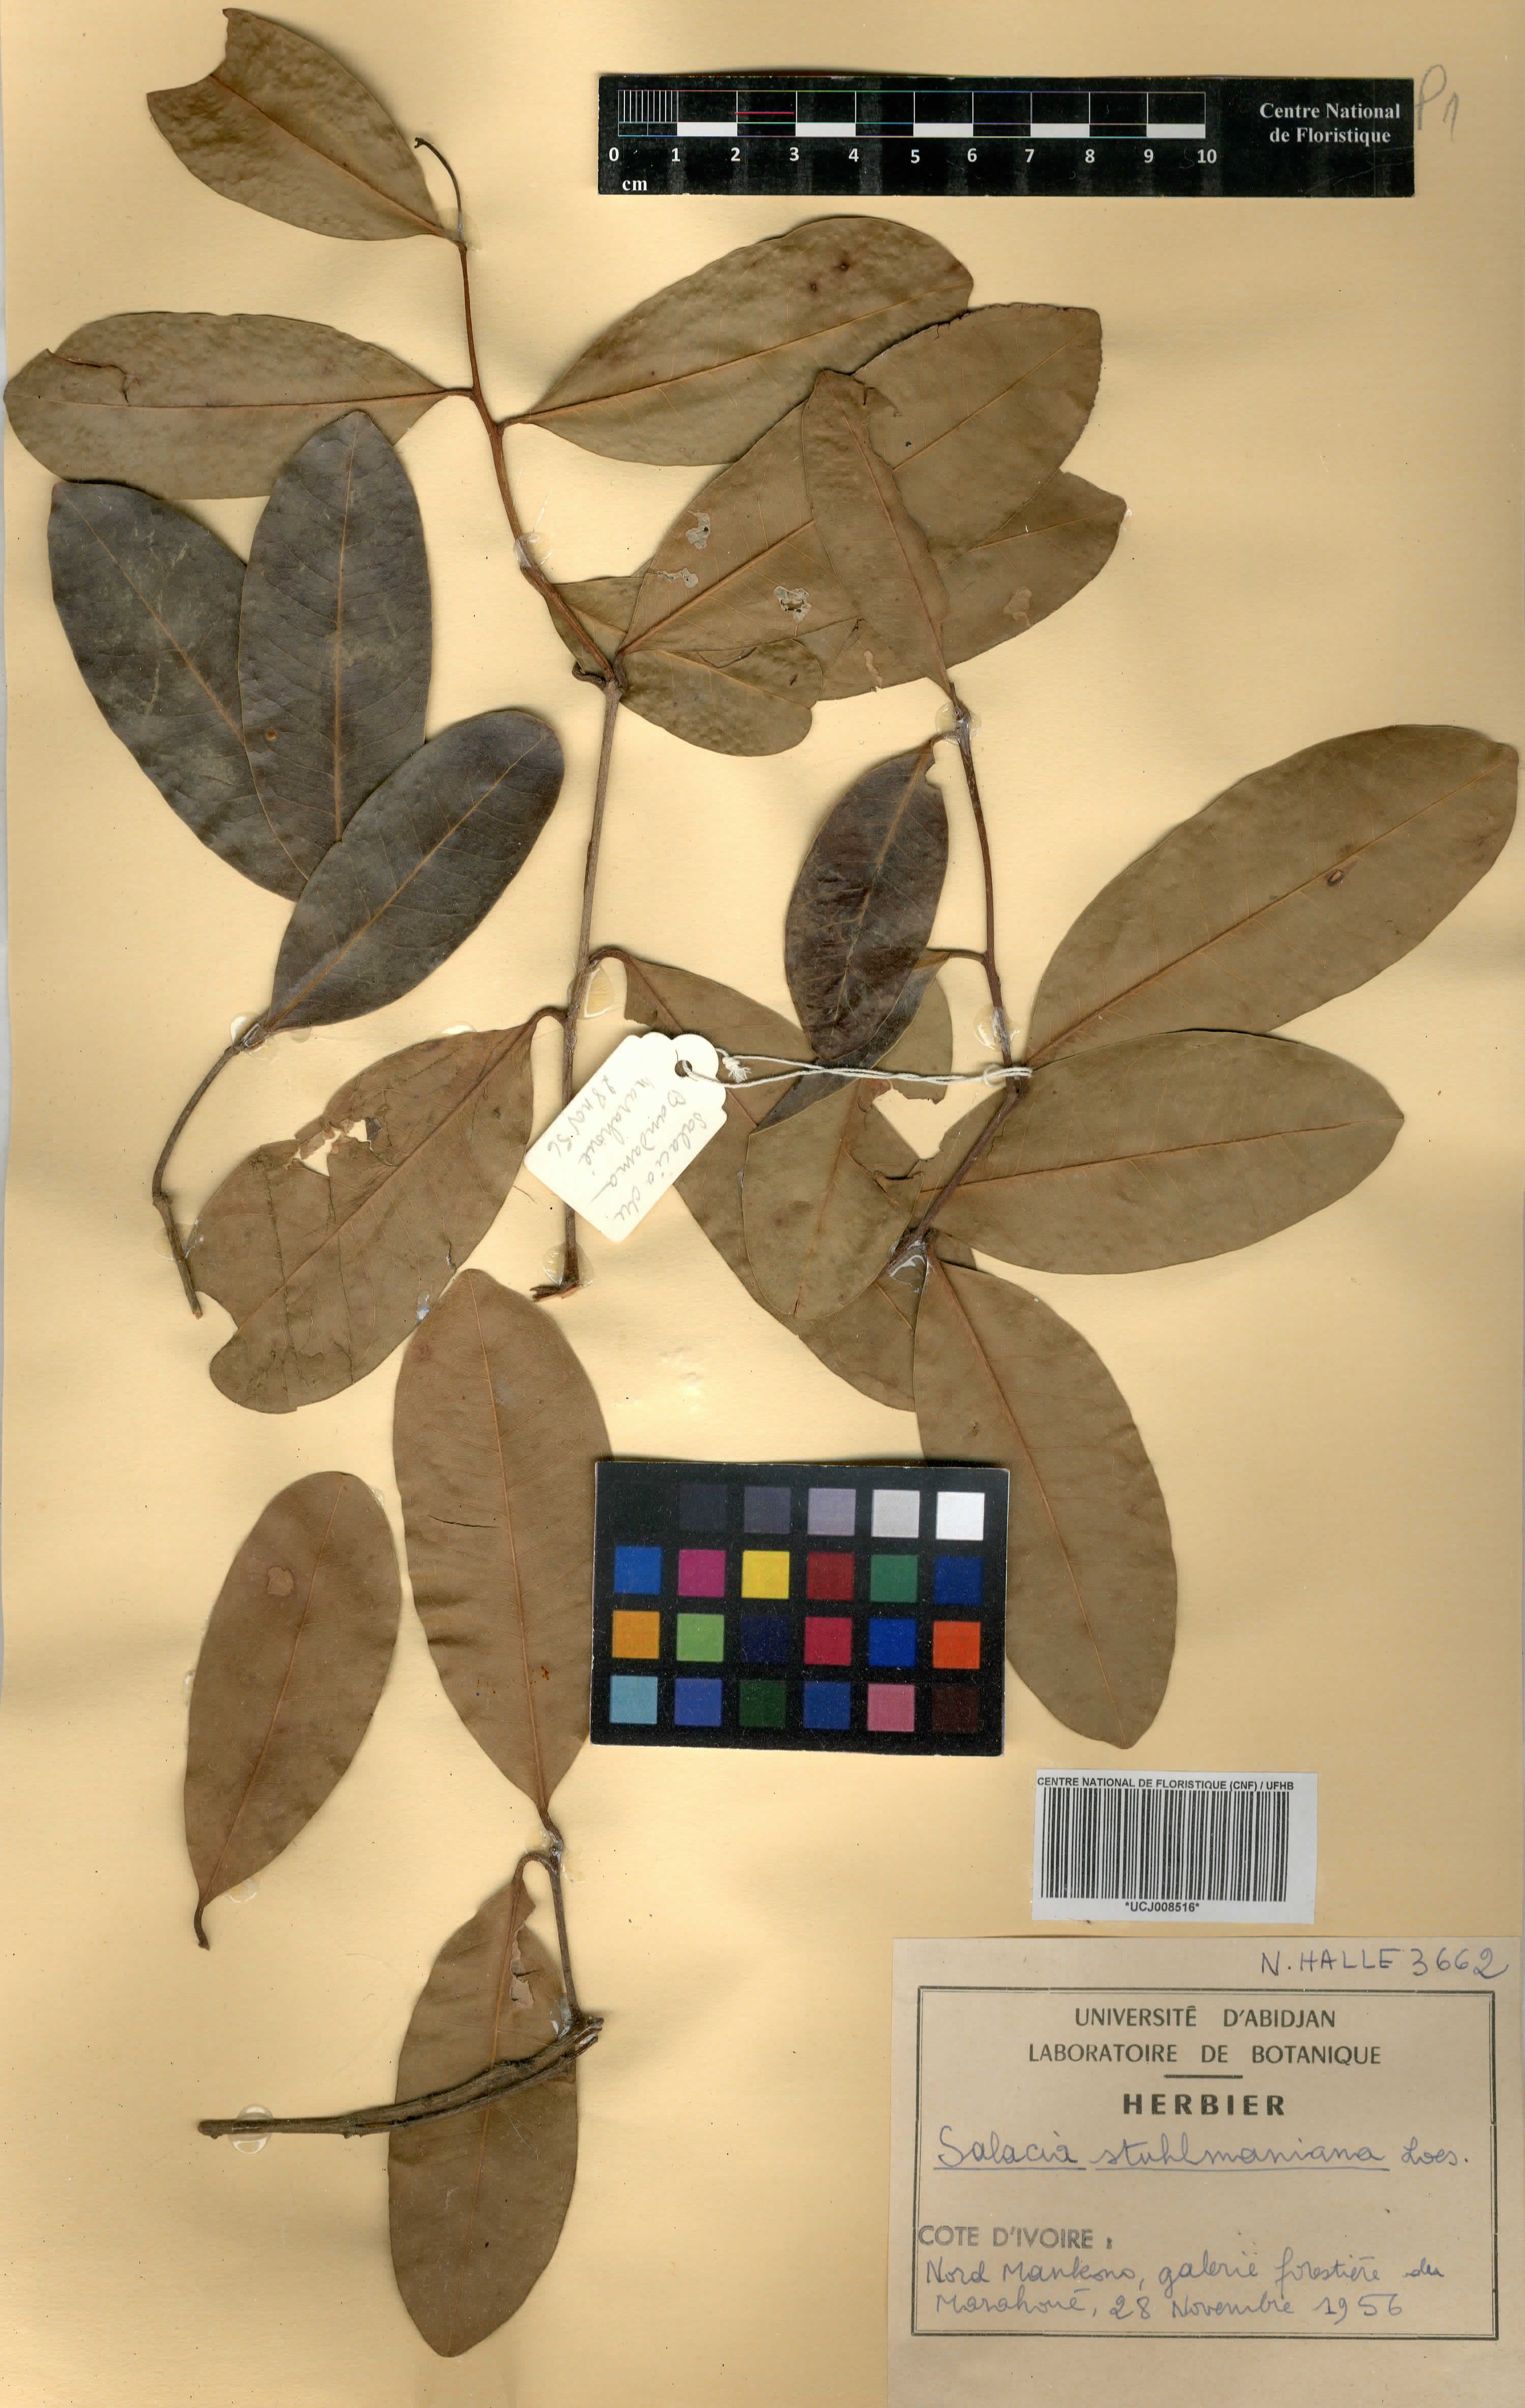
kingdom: Plantae
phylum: Tracheophyta
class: Magnoliopsida
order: Celastrales
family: Celastraceae
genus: Salacia
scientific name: Salacia stuhlmanniana
